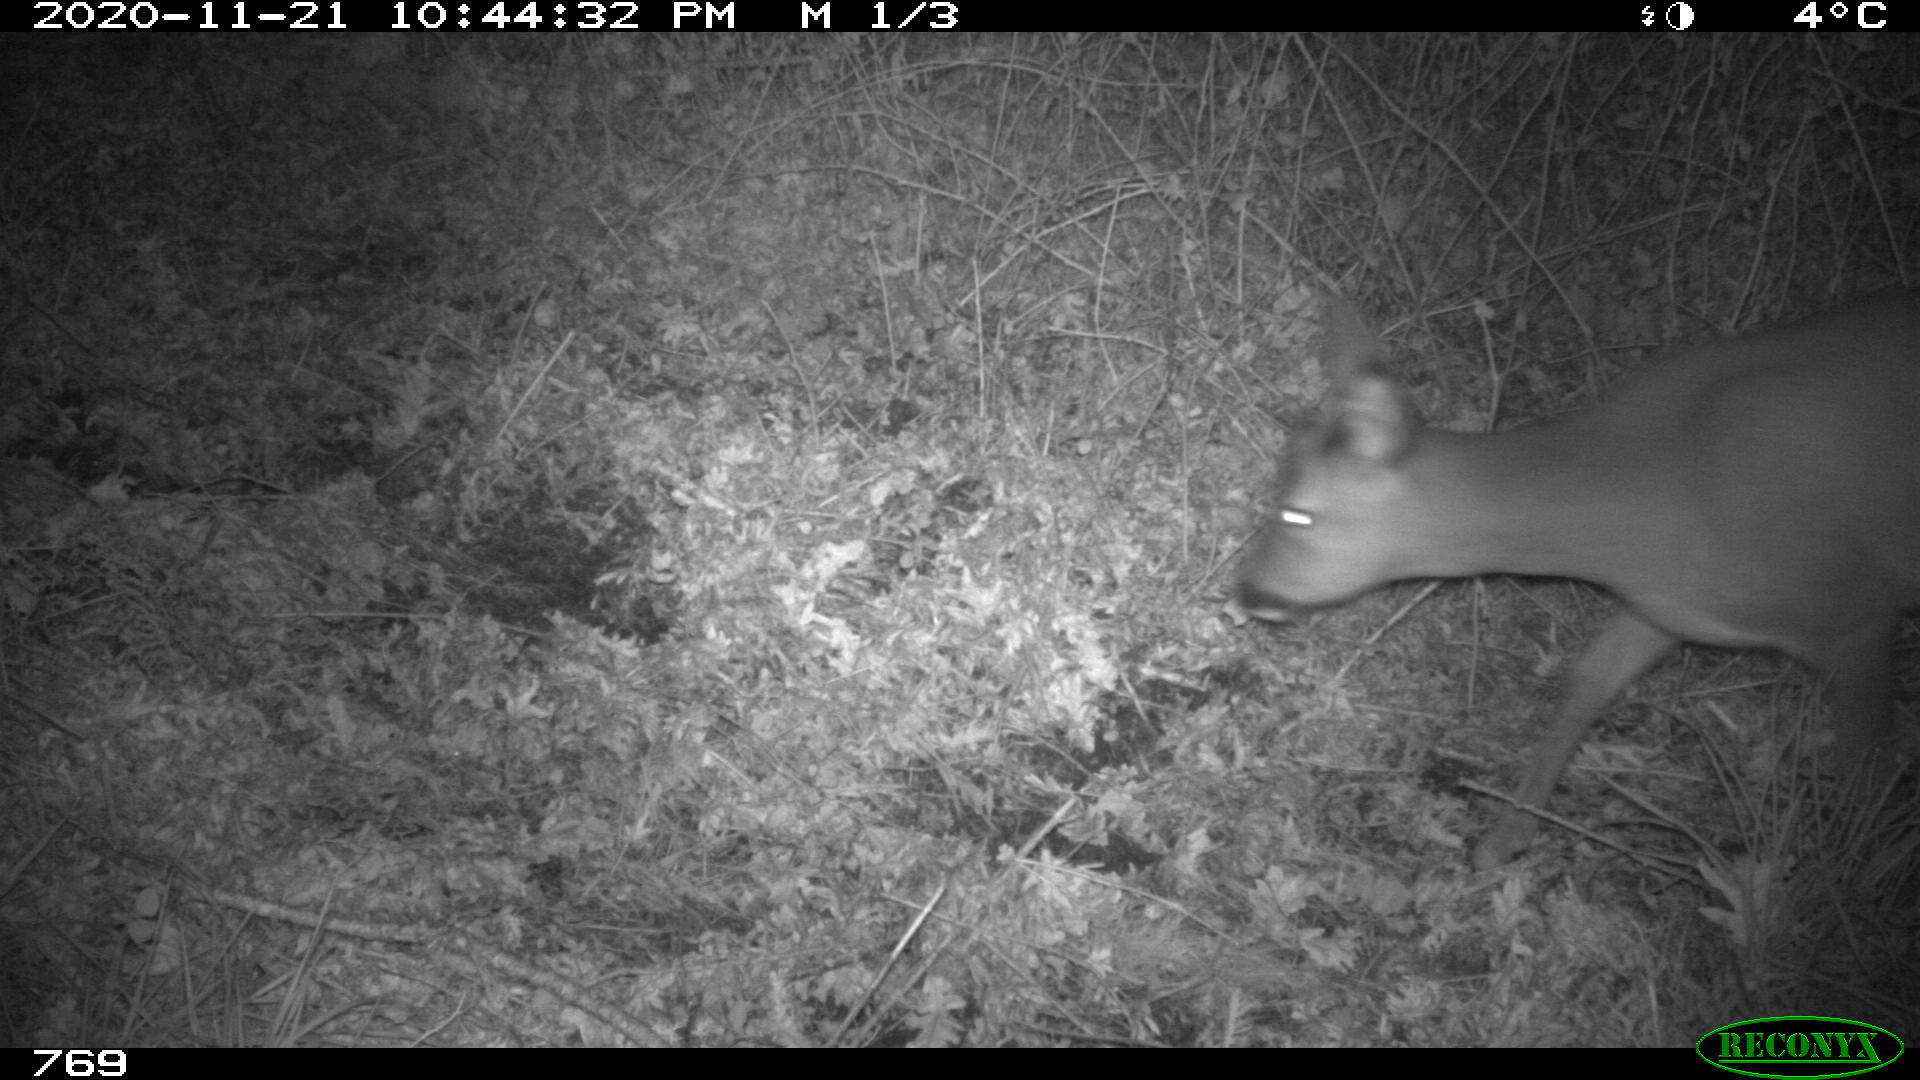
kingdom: Animalia
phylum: Chordata
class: Mammalia
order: Artiodactyla
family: Cervidae
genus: Capreolus
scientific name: Capreolus capreolus
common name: Western roe deer
